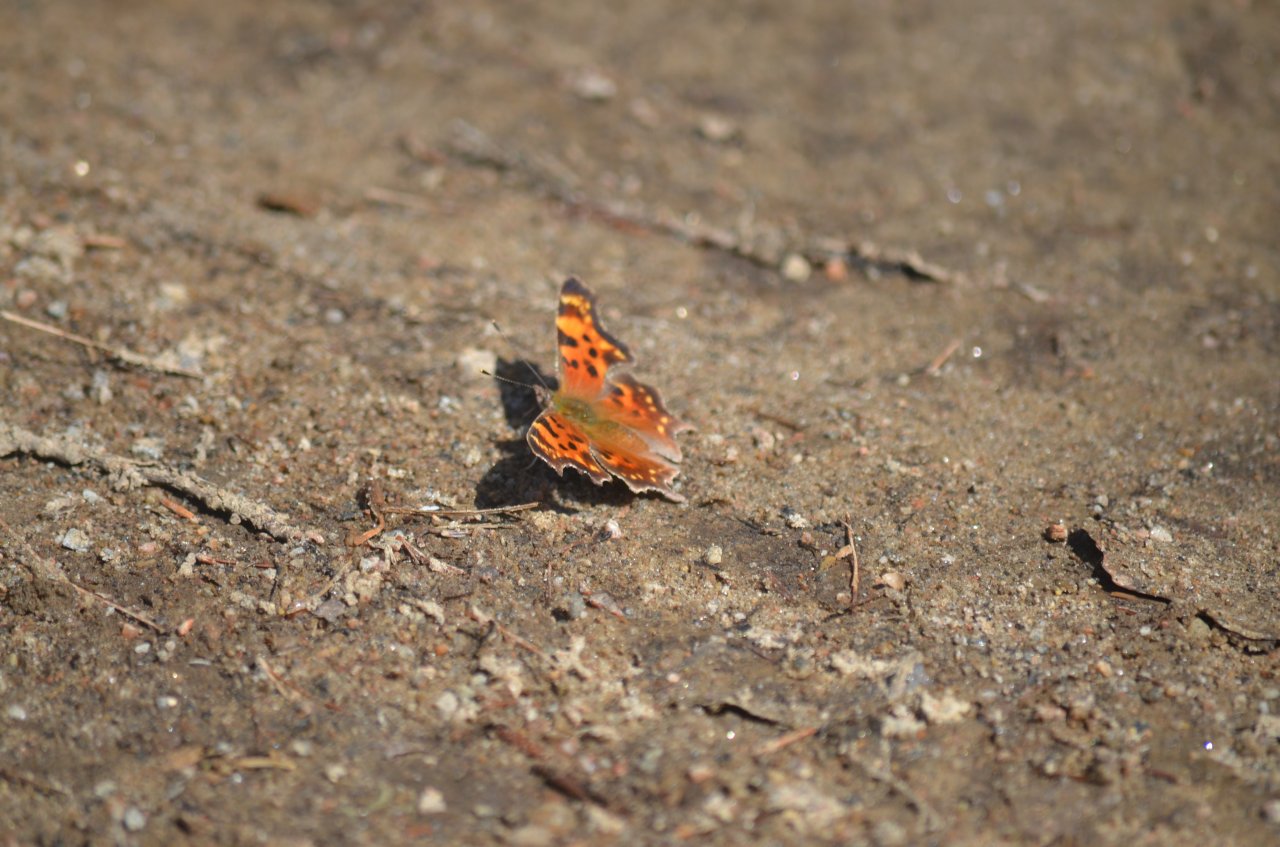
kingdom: Animalia
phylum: Arthropoda
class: Insecta
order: Lepidoptera
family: Nymphalidae
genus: Polygonia
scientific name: Polygonia faunus
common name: Green Comma
